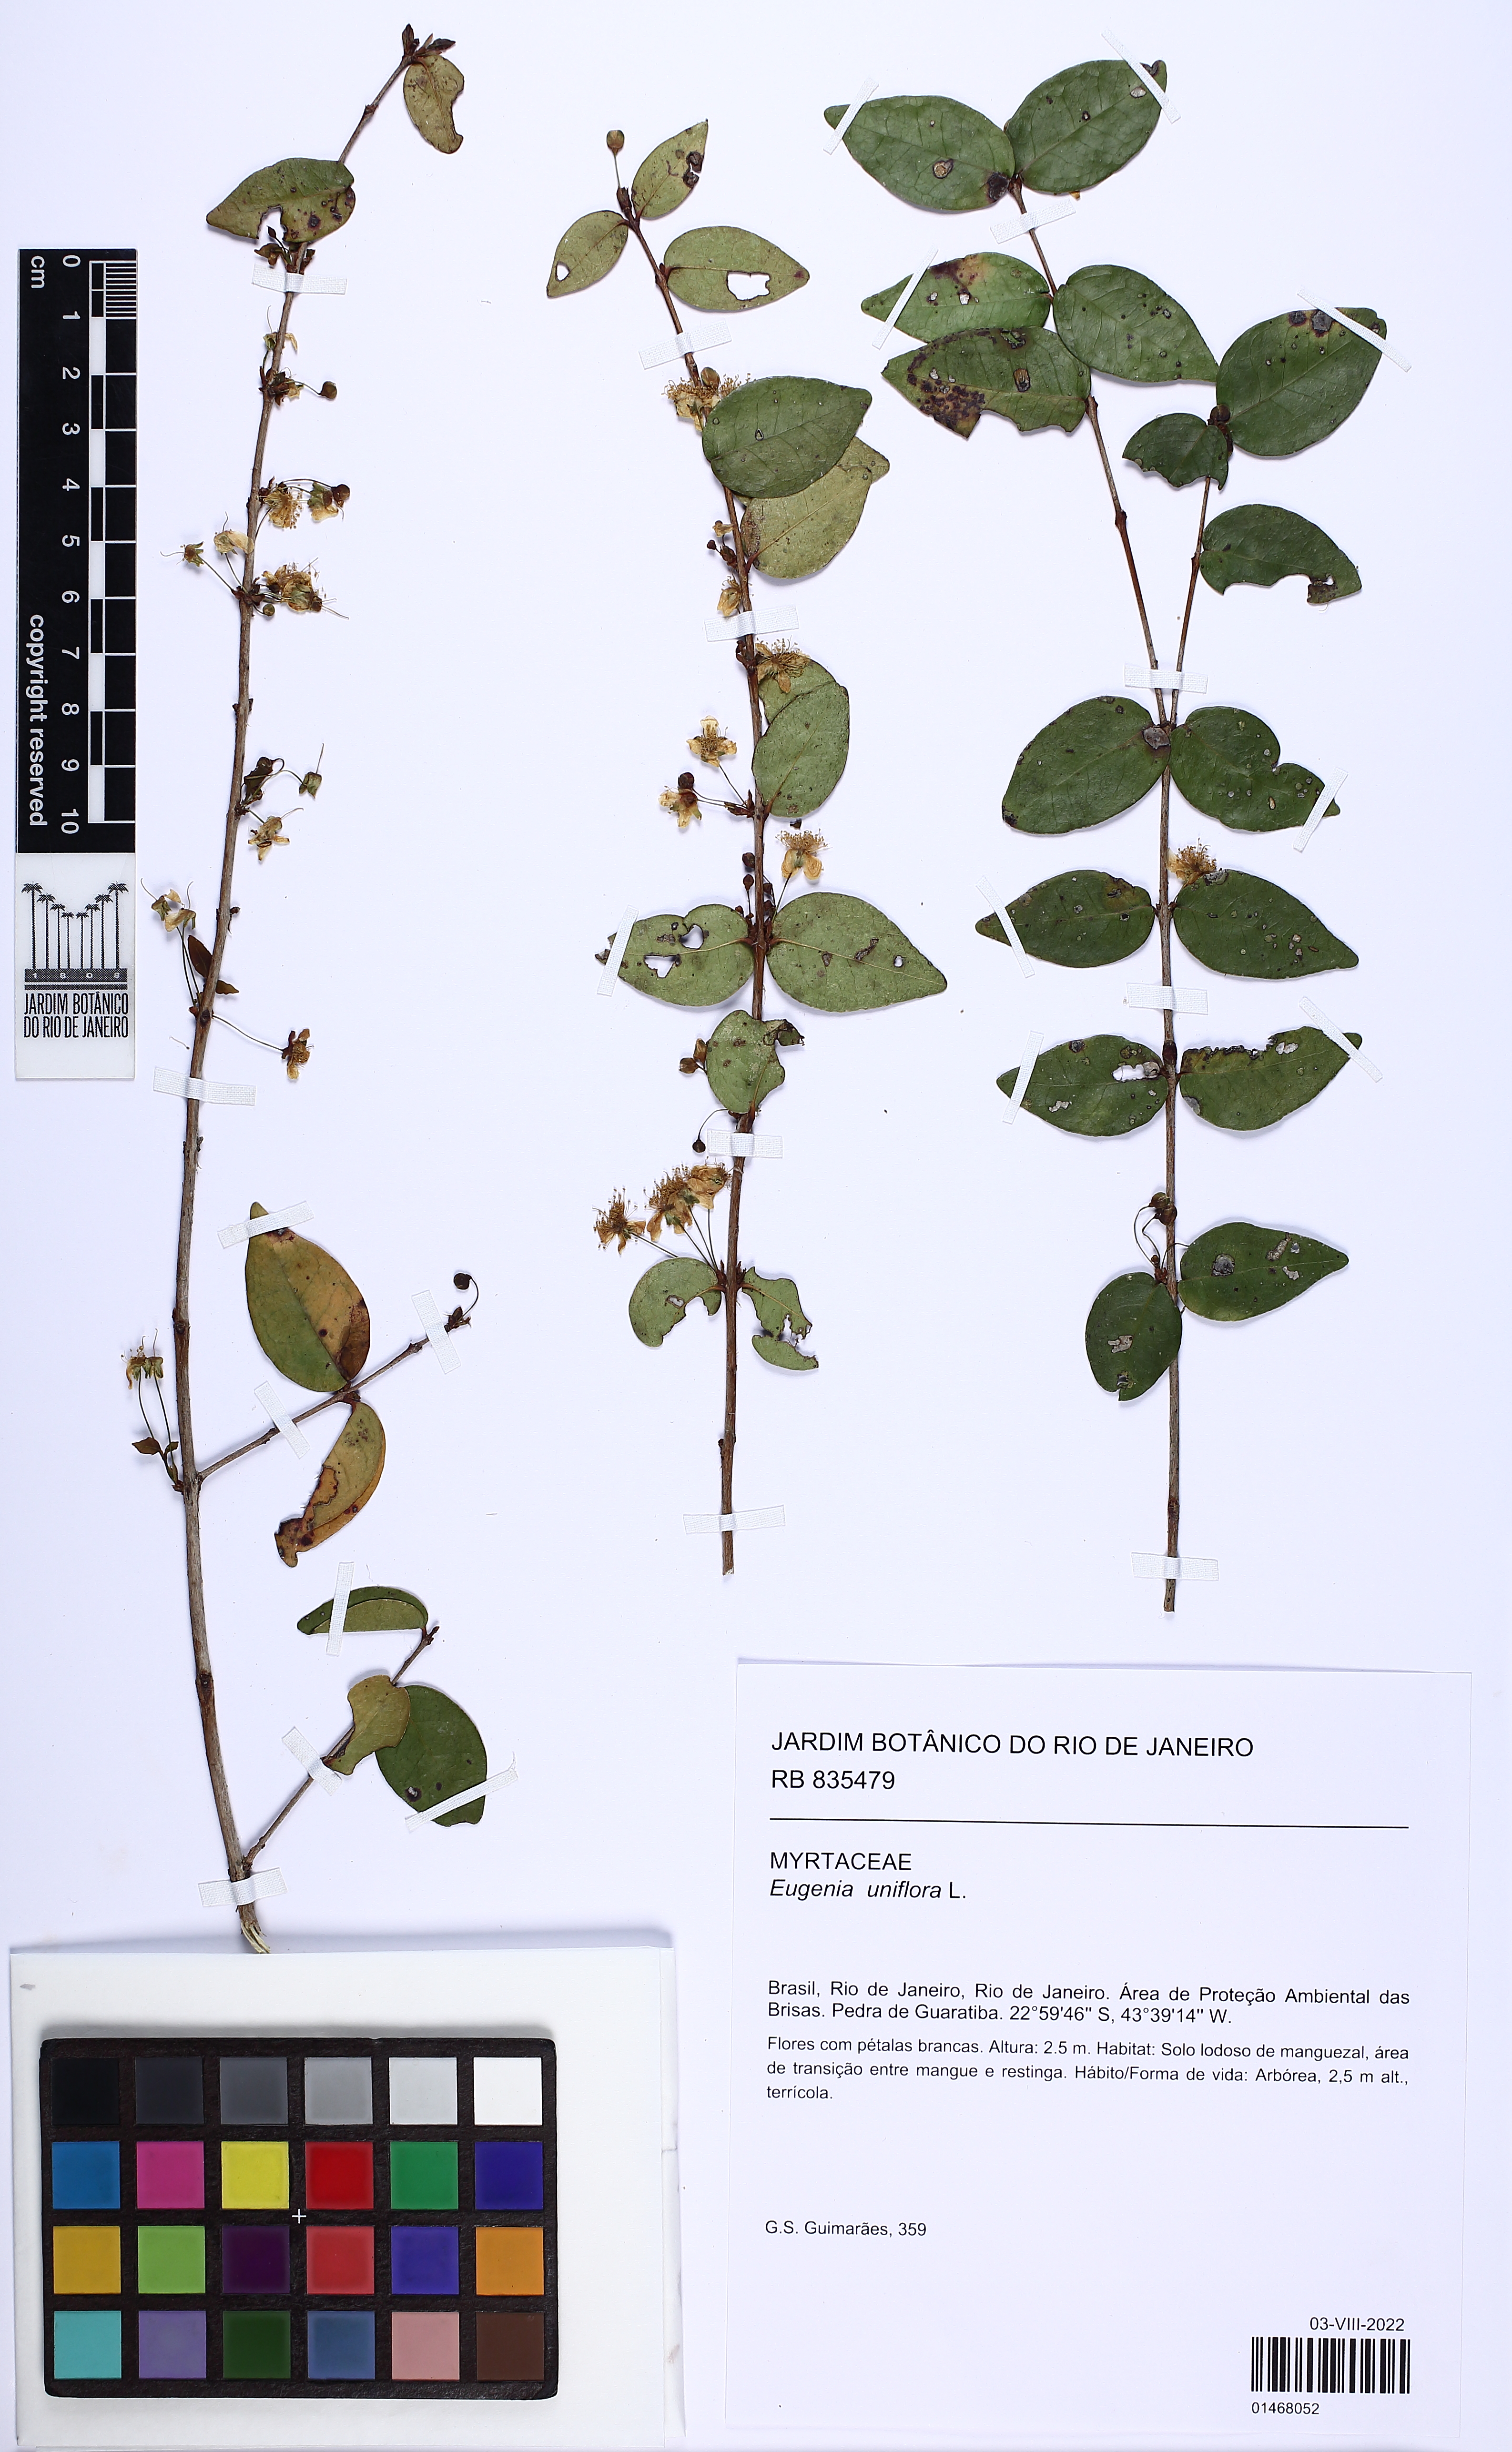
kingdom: Plantae
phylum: Tracheophyta
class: Magnoliopsida
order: Myrtales
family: Myrtaceae
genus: Eugenia
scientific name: Eugenia uniflora
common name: Surinam cherry
